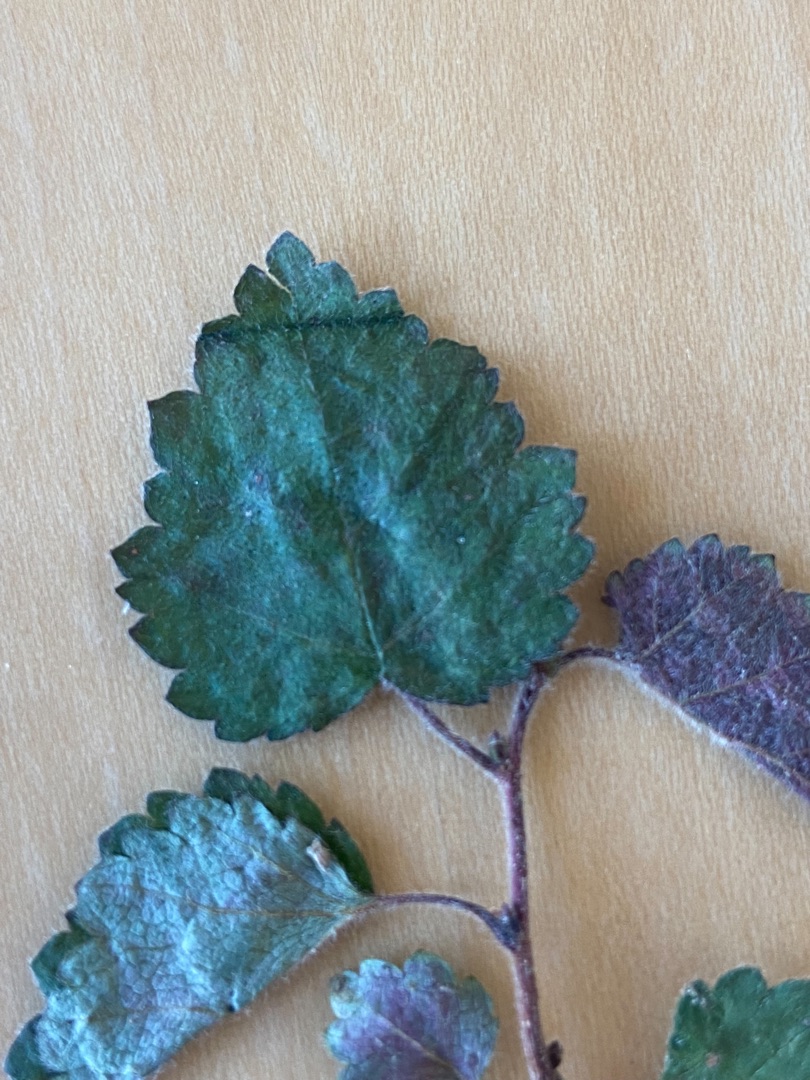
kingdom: Plantae
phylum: Tracheophyta
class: Magnoliopsida
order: Fagales
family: Betulaceae
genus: Betula
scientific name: Betula pubescens
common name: Dun-birk
